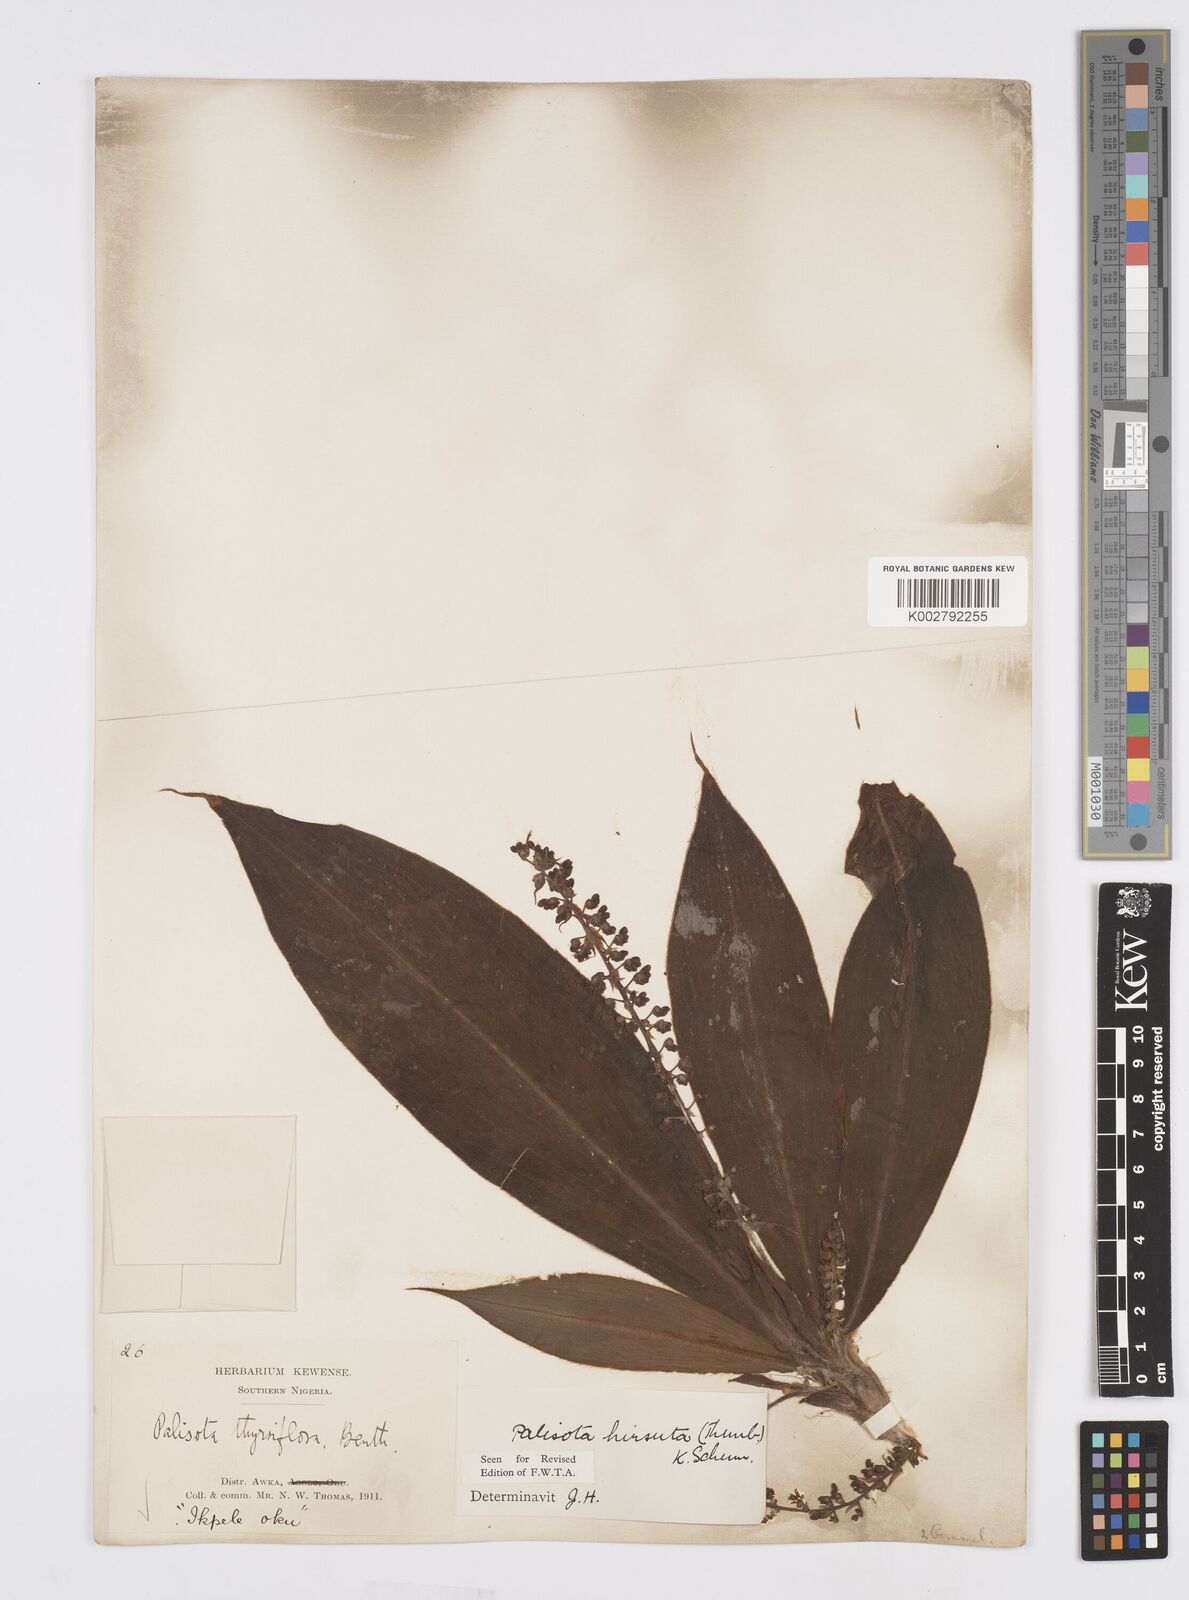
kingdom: Plantae
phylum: Tracheophyta
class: Liliopsida
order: Commelinales
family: Commelinaceae
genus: Palisota
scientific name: Palisota hirsuta
